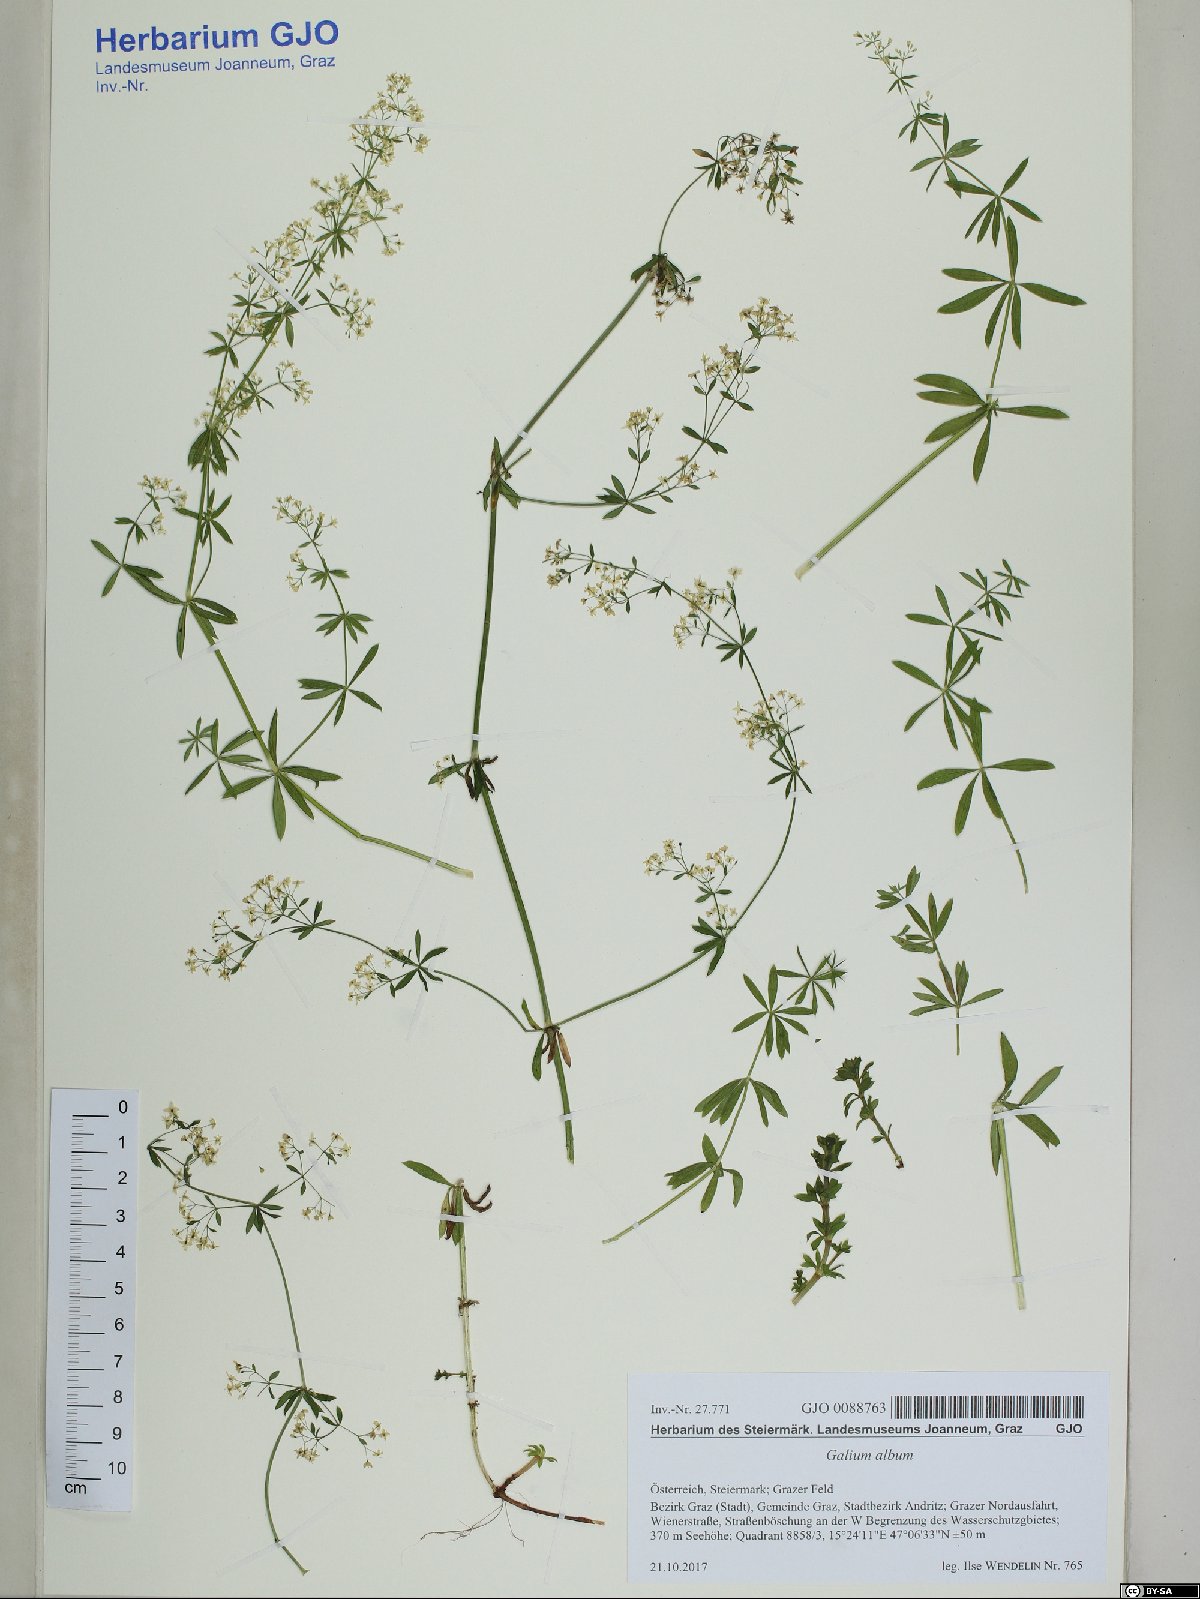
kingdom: Plantae
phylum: Tracheophyta
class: Magnoliopsida
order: Gentianales
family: Rubiaceae
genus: Galium
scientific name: Galium album
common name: White bedstraw
